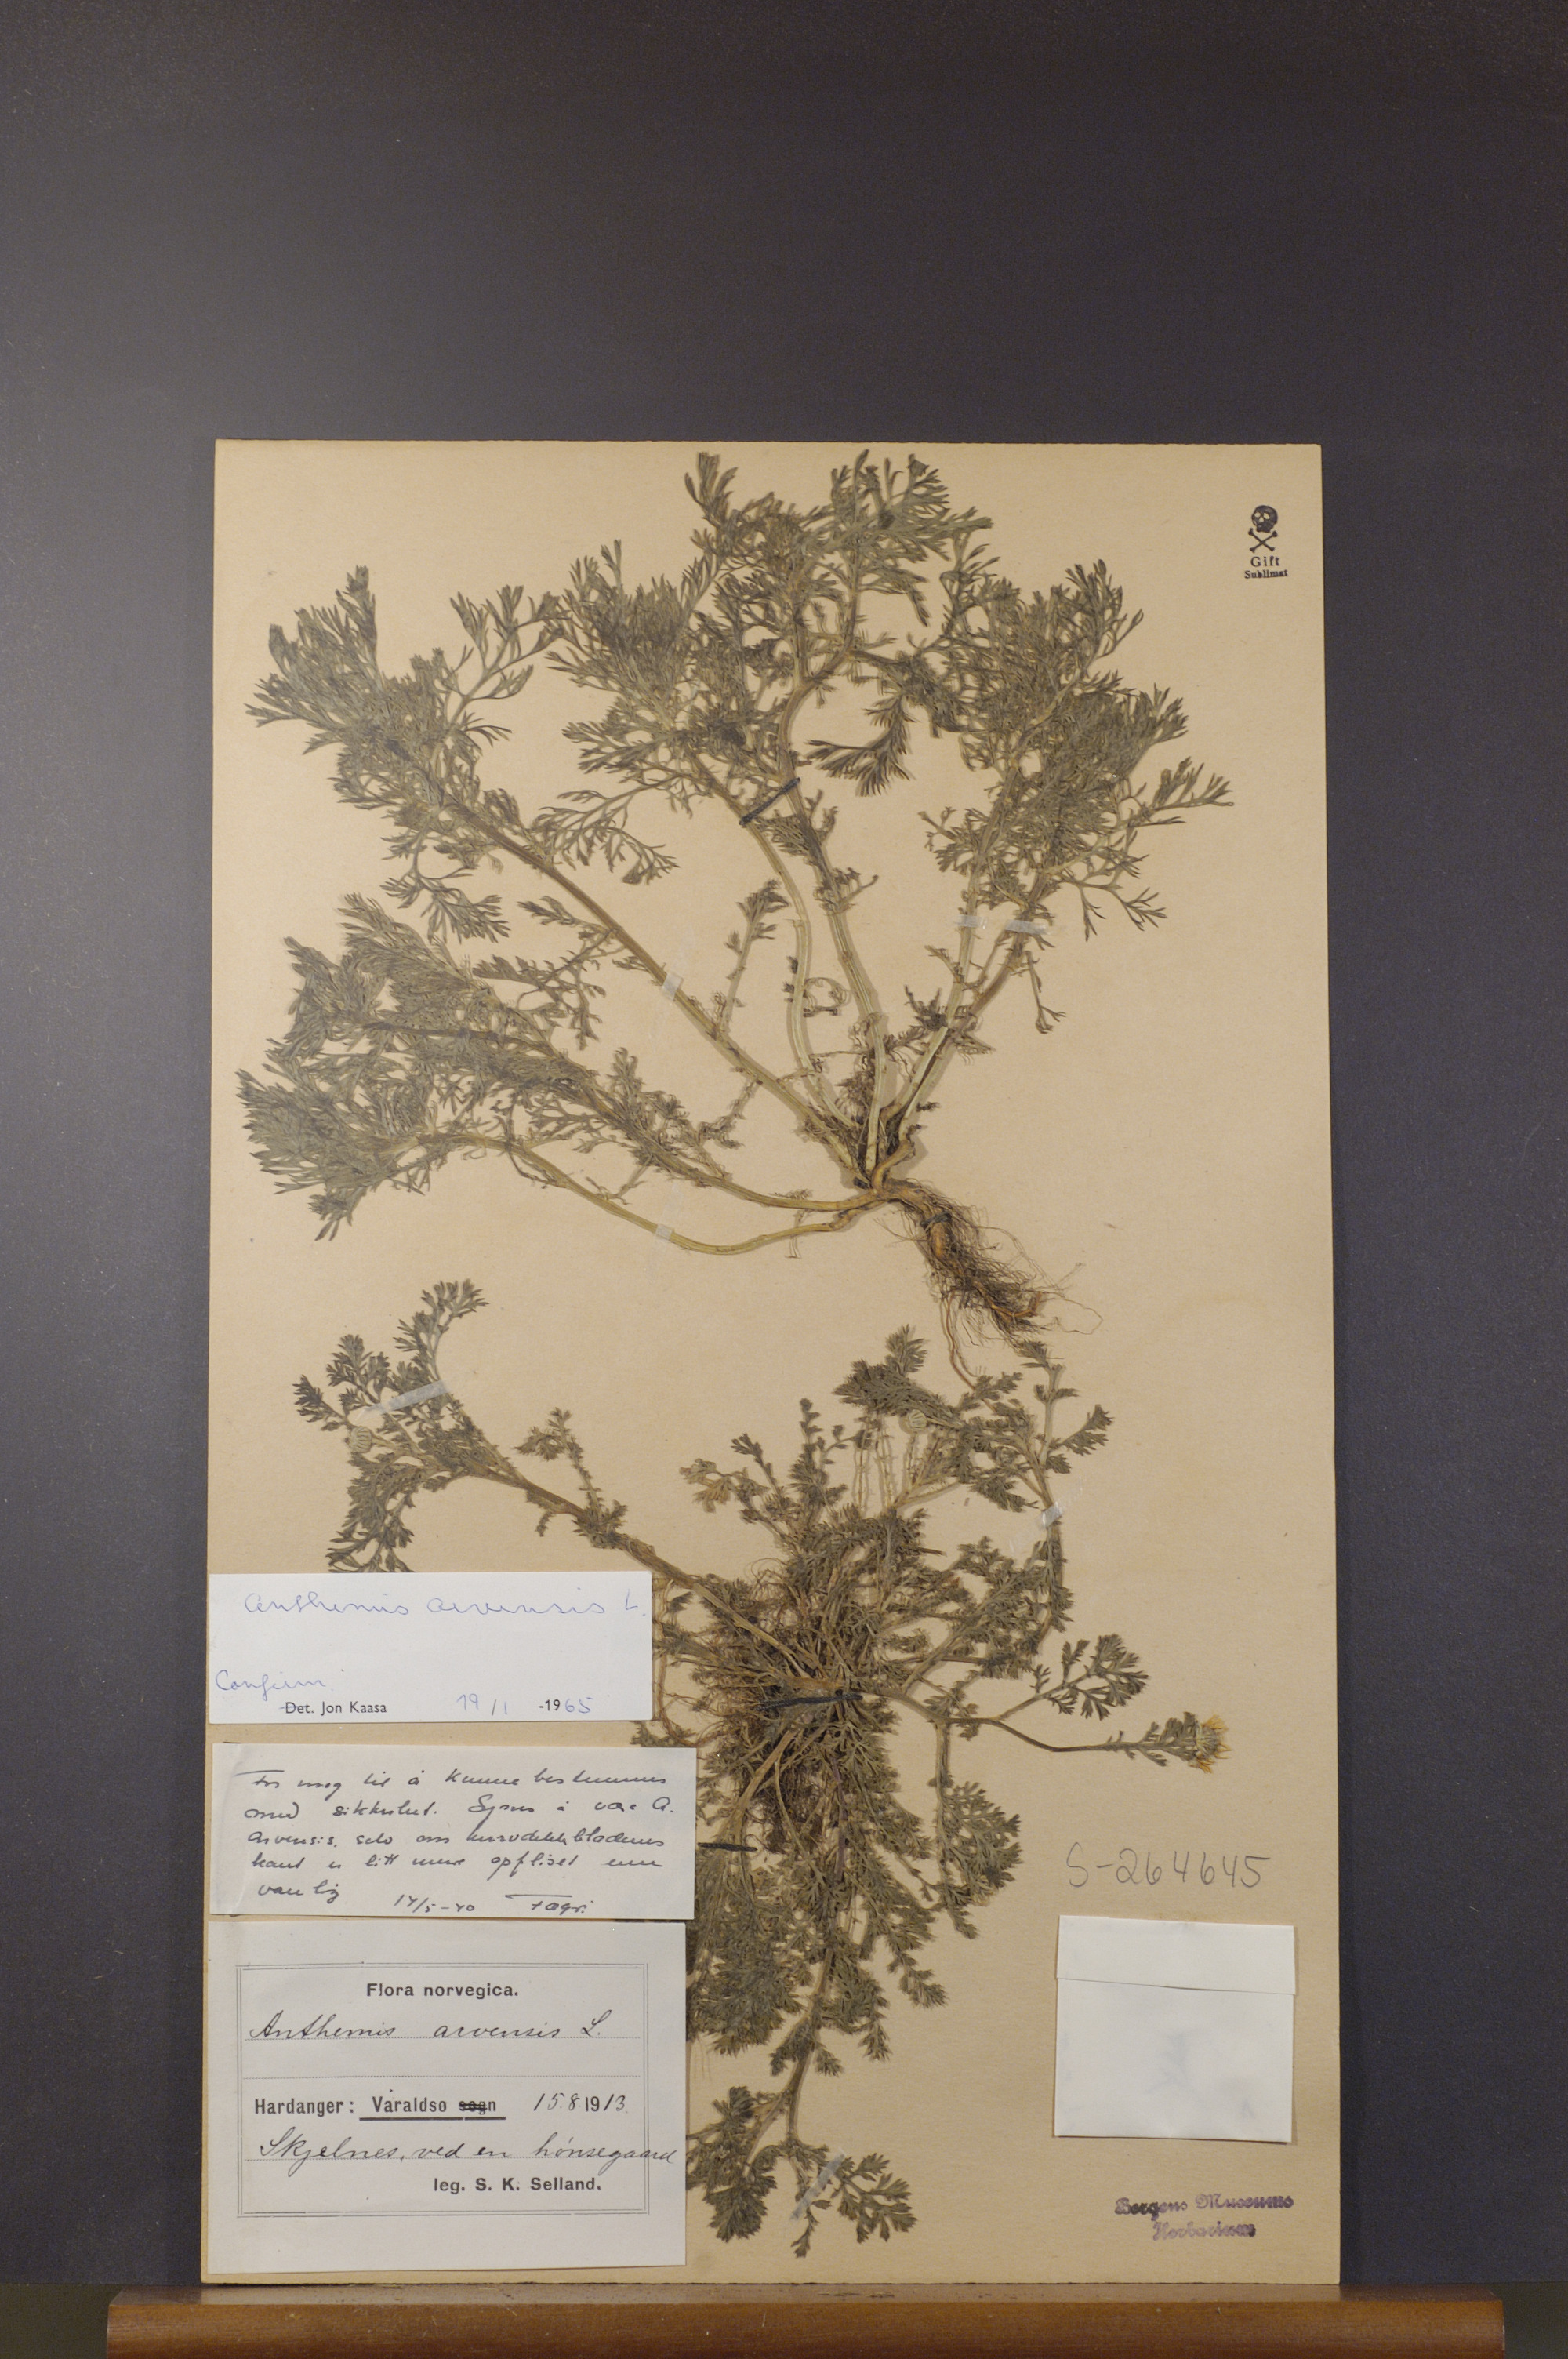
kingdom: Plantae
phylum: Tracheophyta
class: Magnoliopsida
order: Asterales
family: Asteraceae
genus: Anthemis
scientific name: Anthemis arvensis
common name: Corn chamomile
